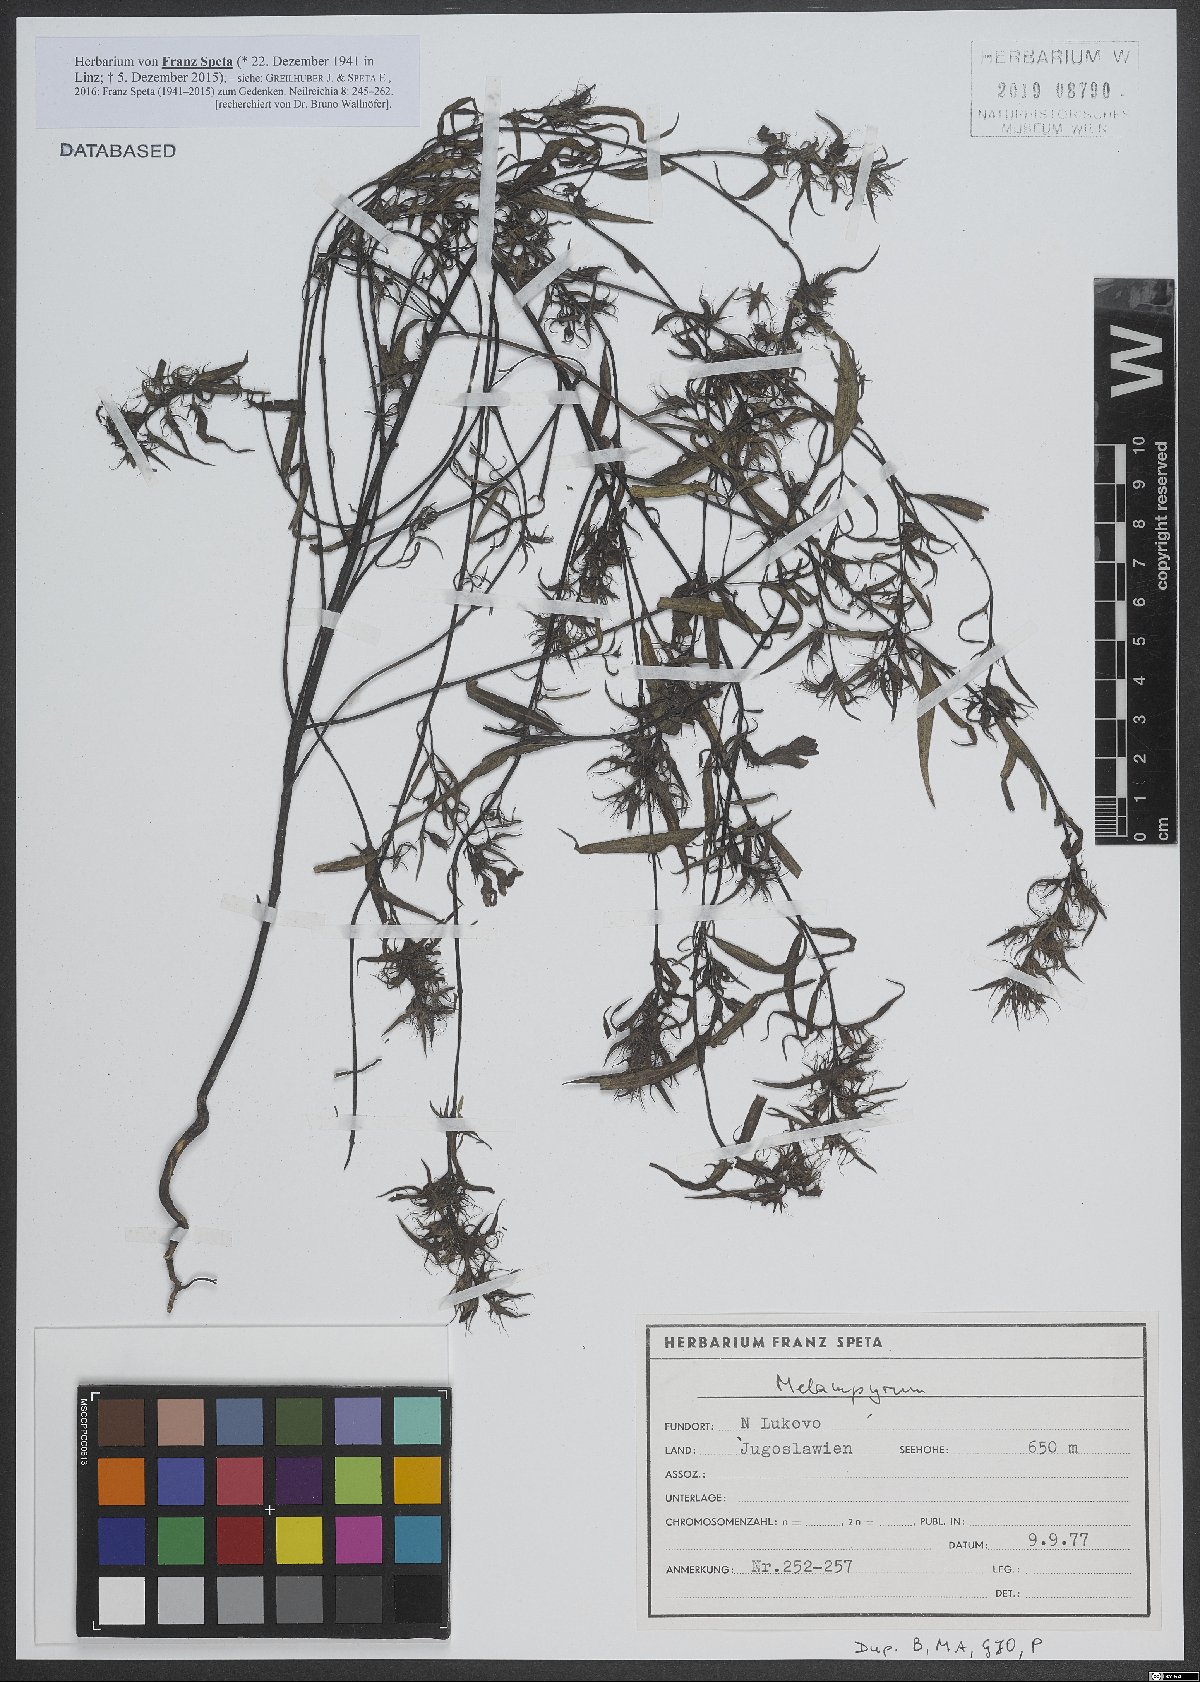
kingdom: Plantae
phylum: Tracheophyta
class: Magnoliopsida
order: Lamiales
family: Orobanchaceae
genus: Melampyrum
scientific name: Melampyrum
